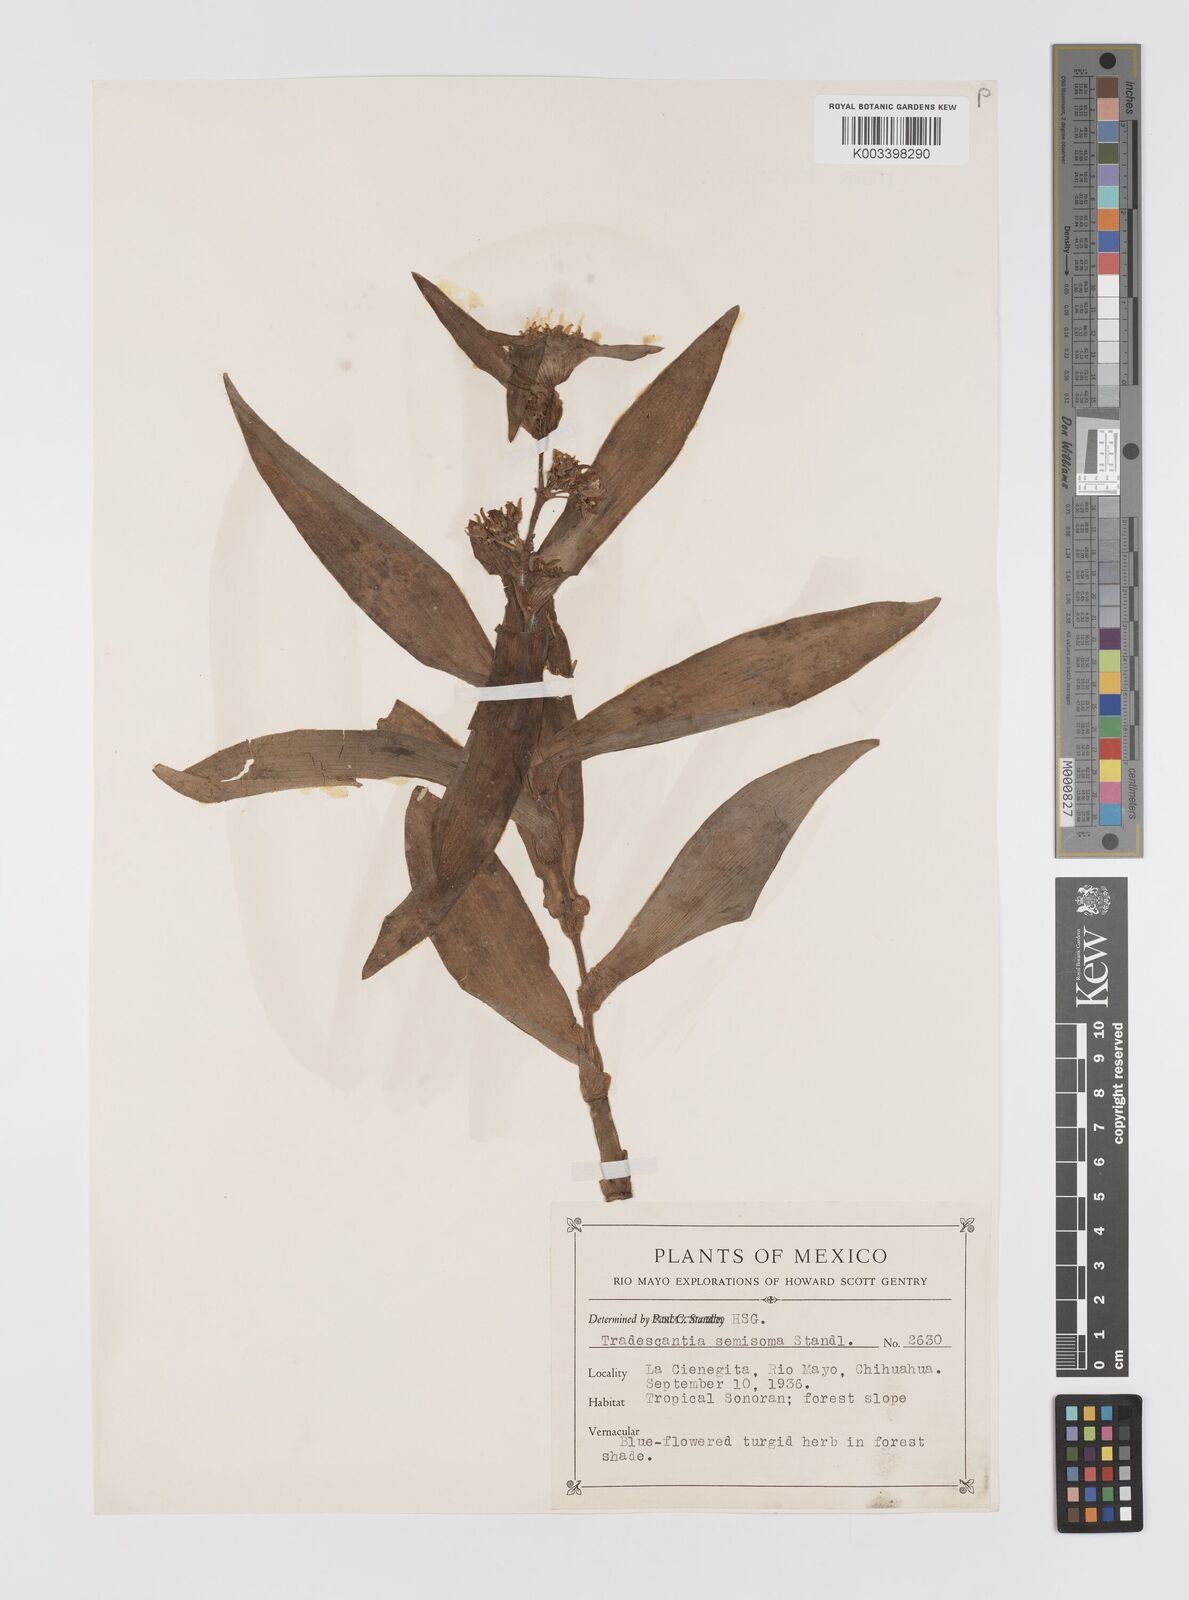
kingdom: Plantae
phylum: Tracheophyta
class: Liliopsida
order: Commelinales
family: Commelinaceae
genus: Tradescantia
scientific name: Tradescantia andrieuxii
